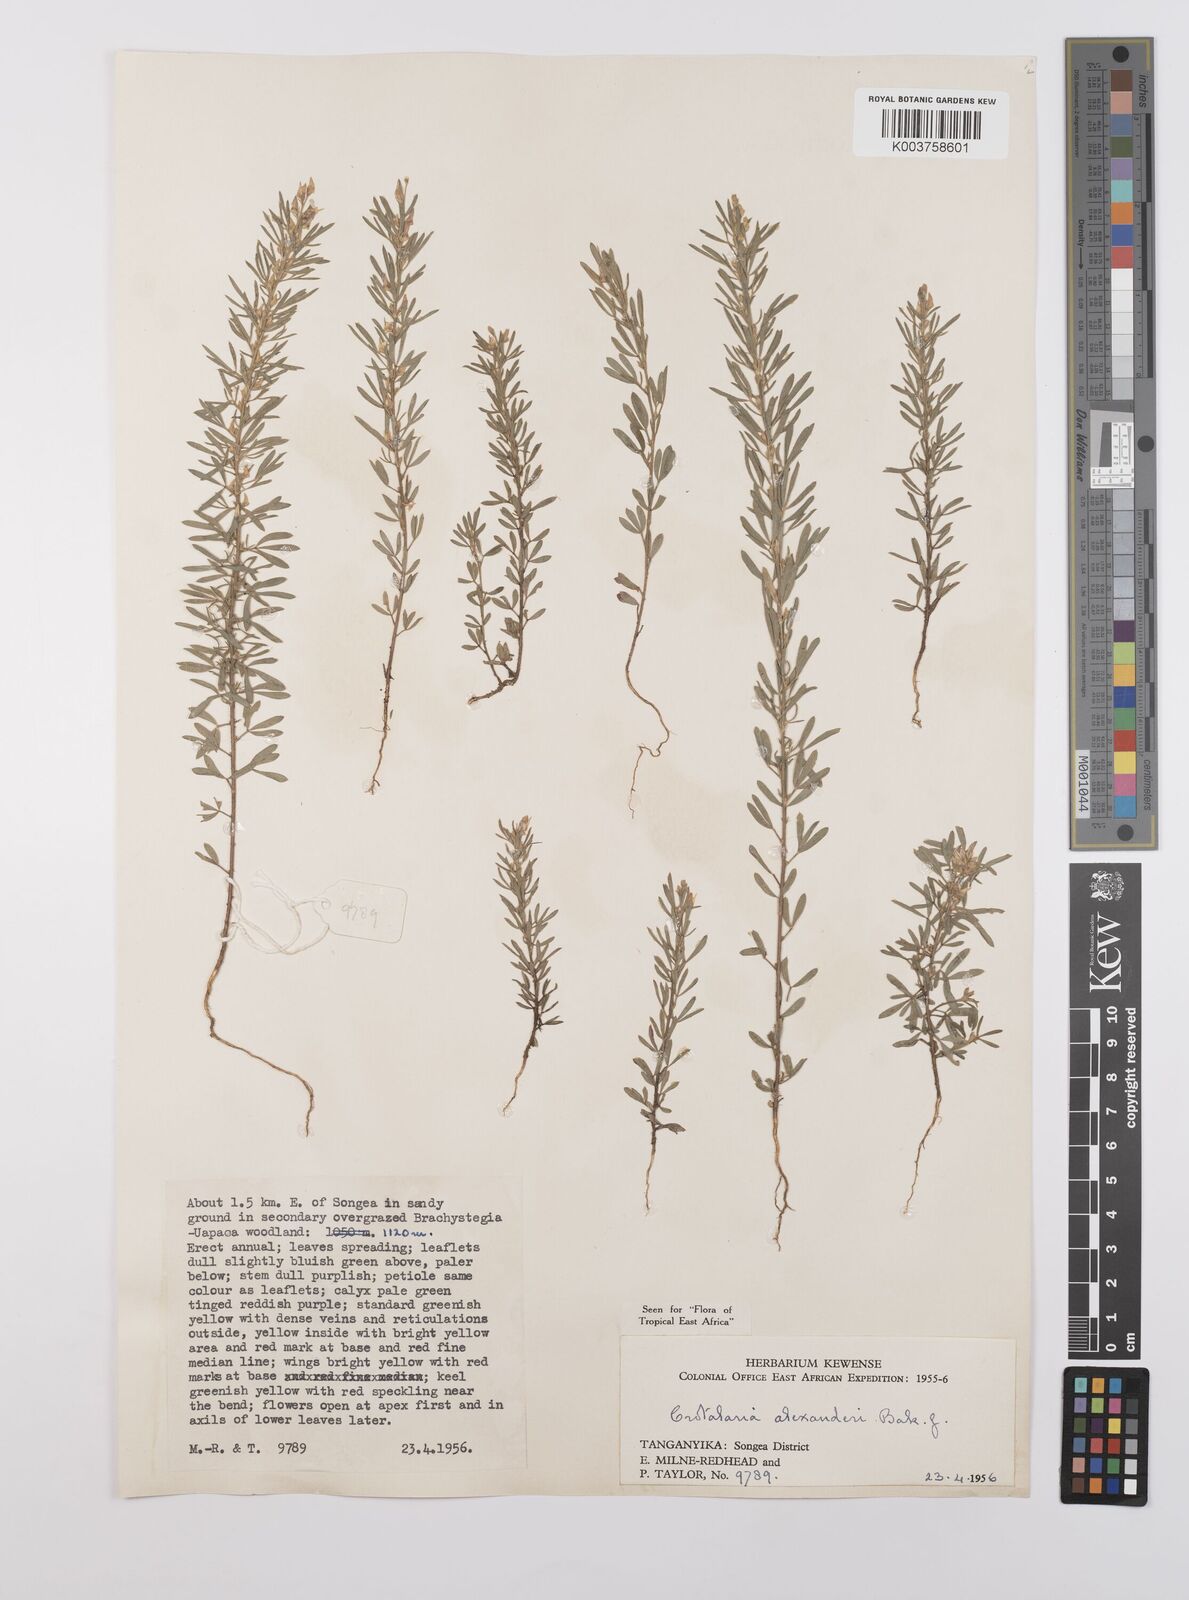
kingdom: Plantae
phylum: Tracheophyta
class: Magnoliopsida
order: Fabales
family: Fabaceae
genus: Crotalaria
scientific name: Crotalaria alexandri
